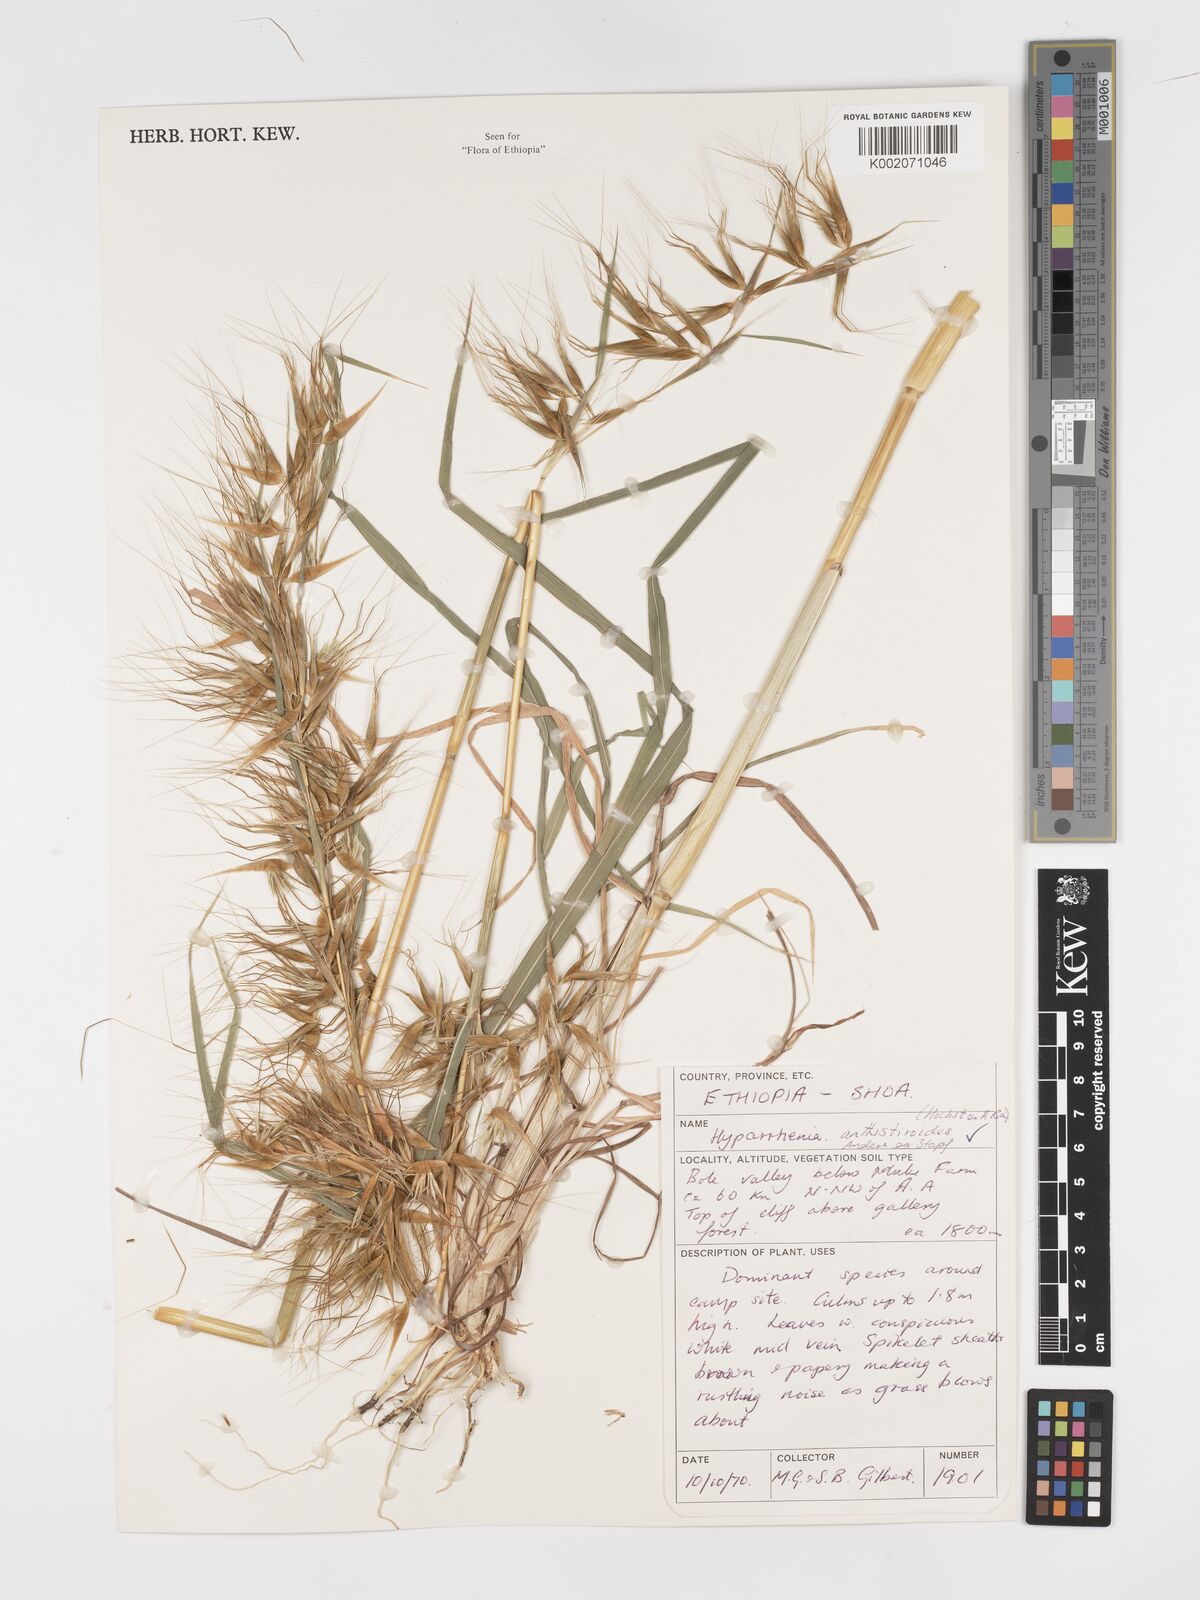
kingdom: Plantae
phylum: Tracheophyta
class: Liliopsida
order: Poales
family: Poaceae
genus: Hyparrhenia
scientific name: Hyparrhenia anthistirioides
